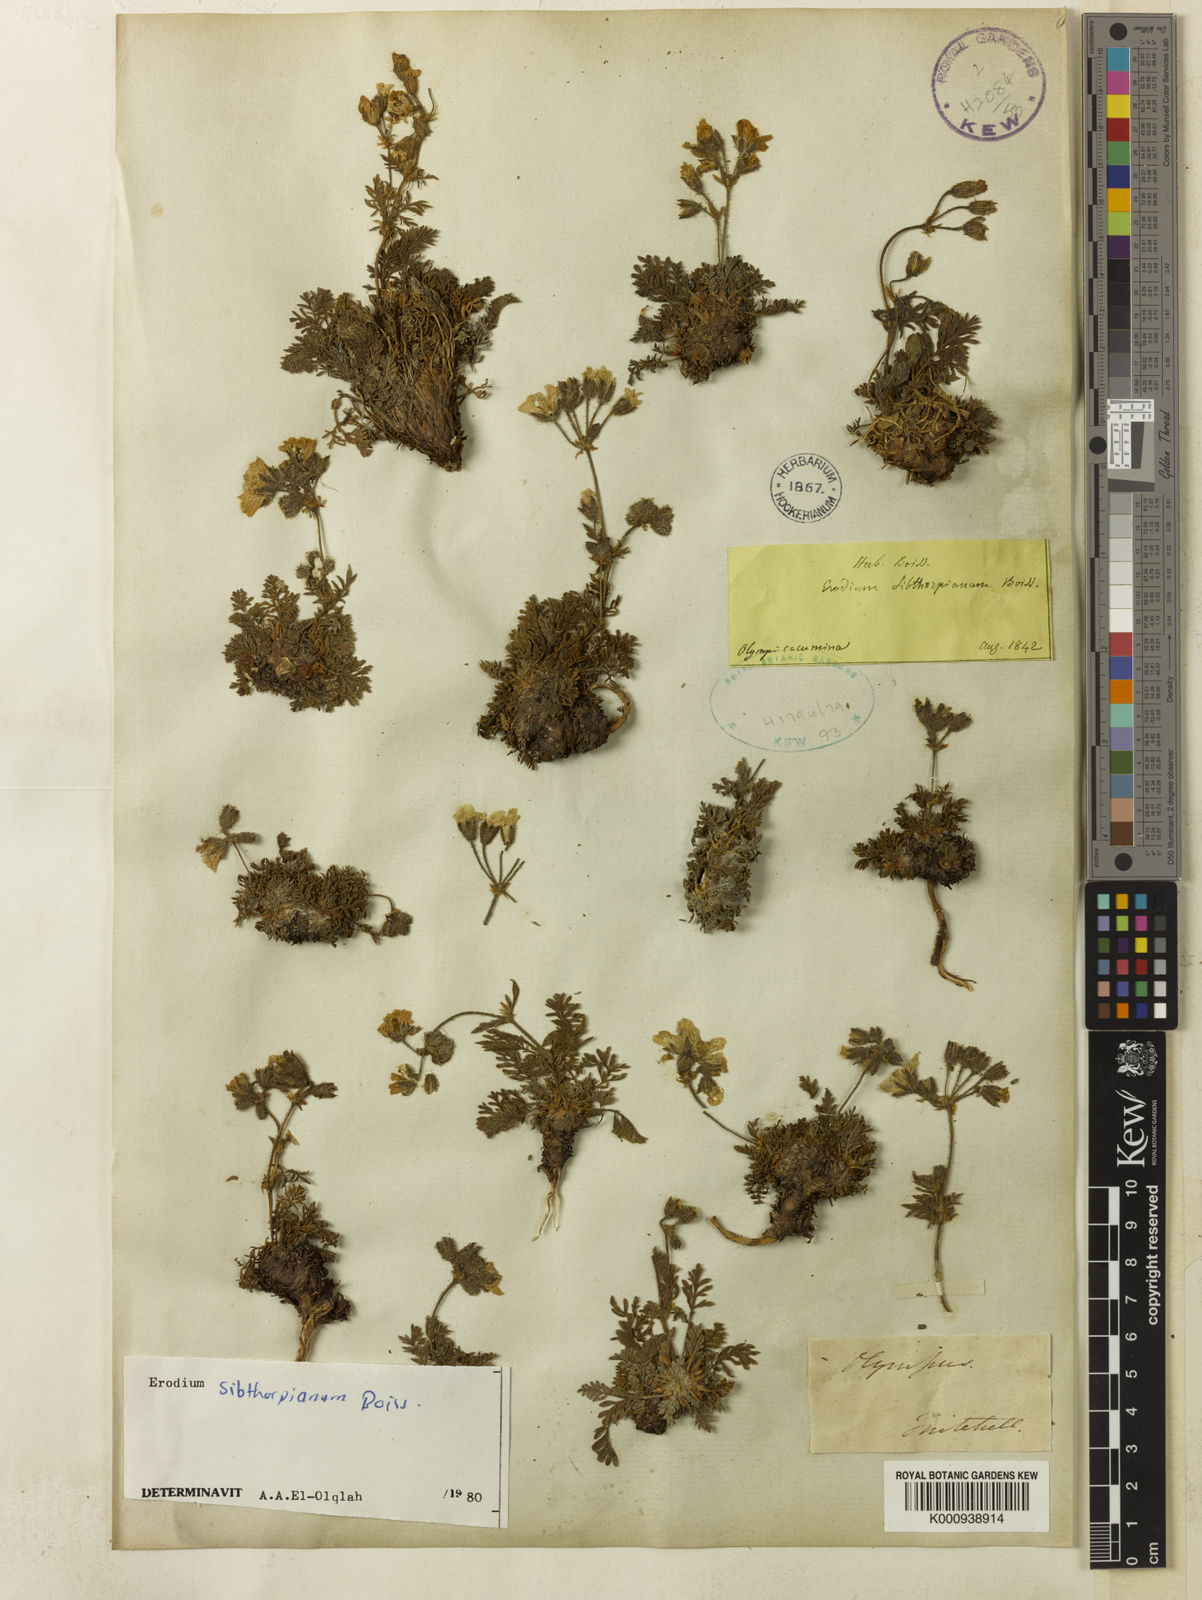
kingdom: Plantae
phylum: Tracheophyta
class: Magnoliopsida
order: Geraniales
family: Geraniaceae
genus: Erodium
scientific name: Erodium sibthorpianum
